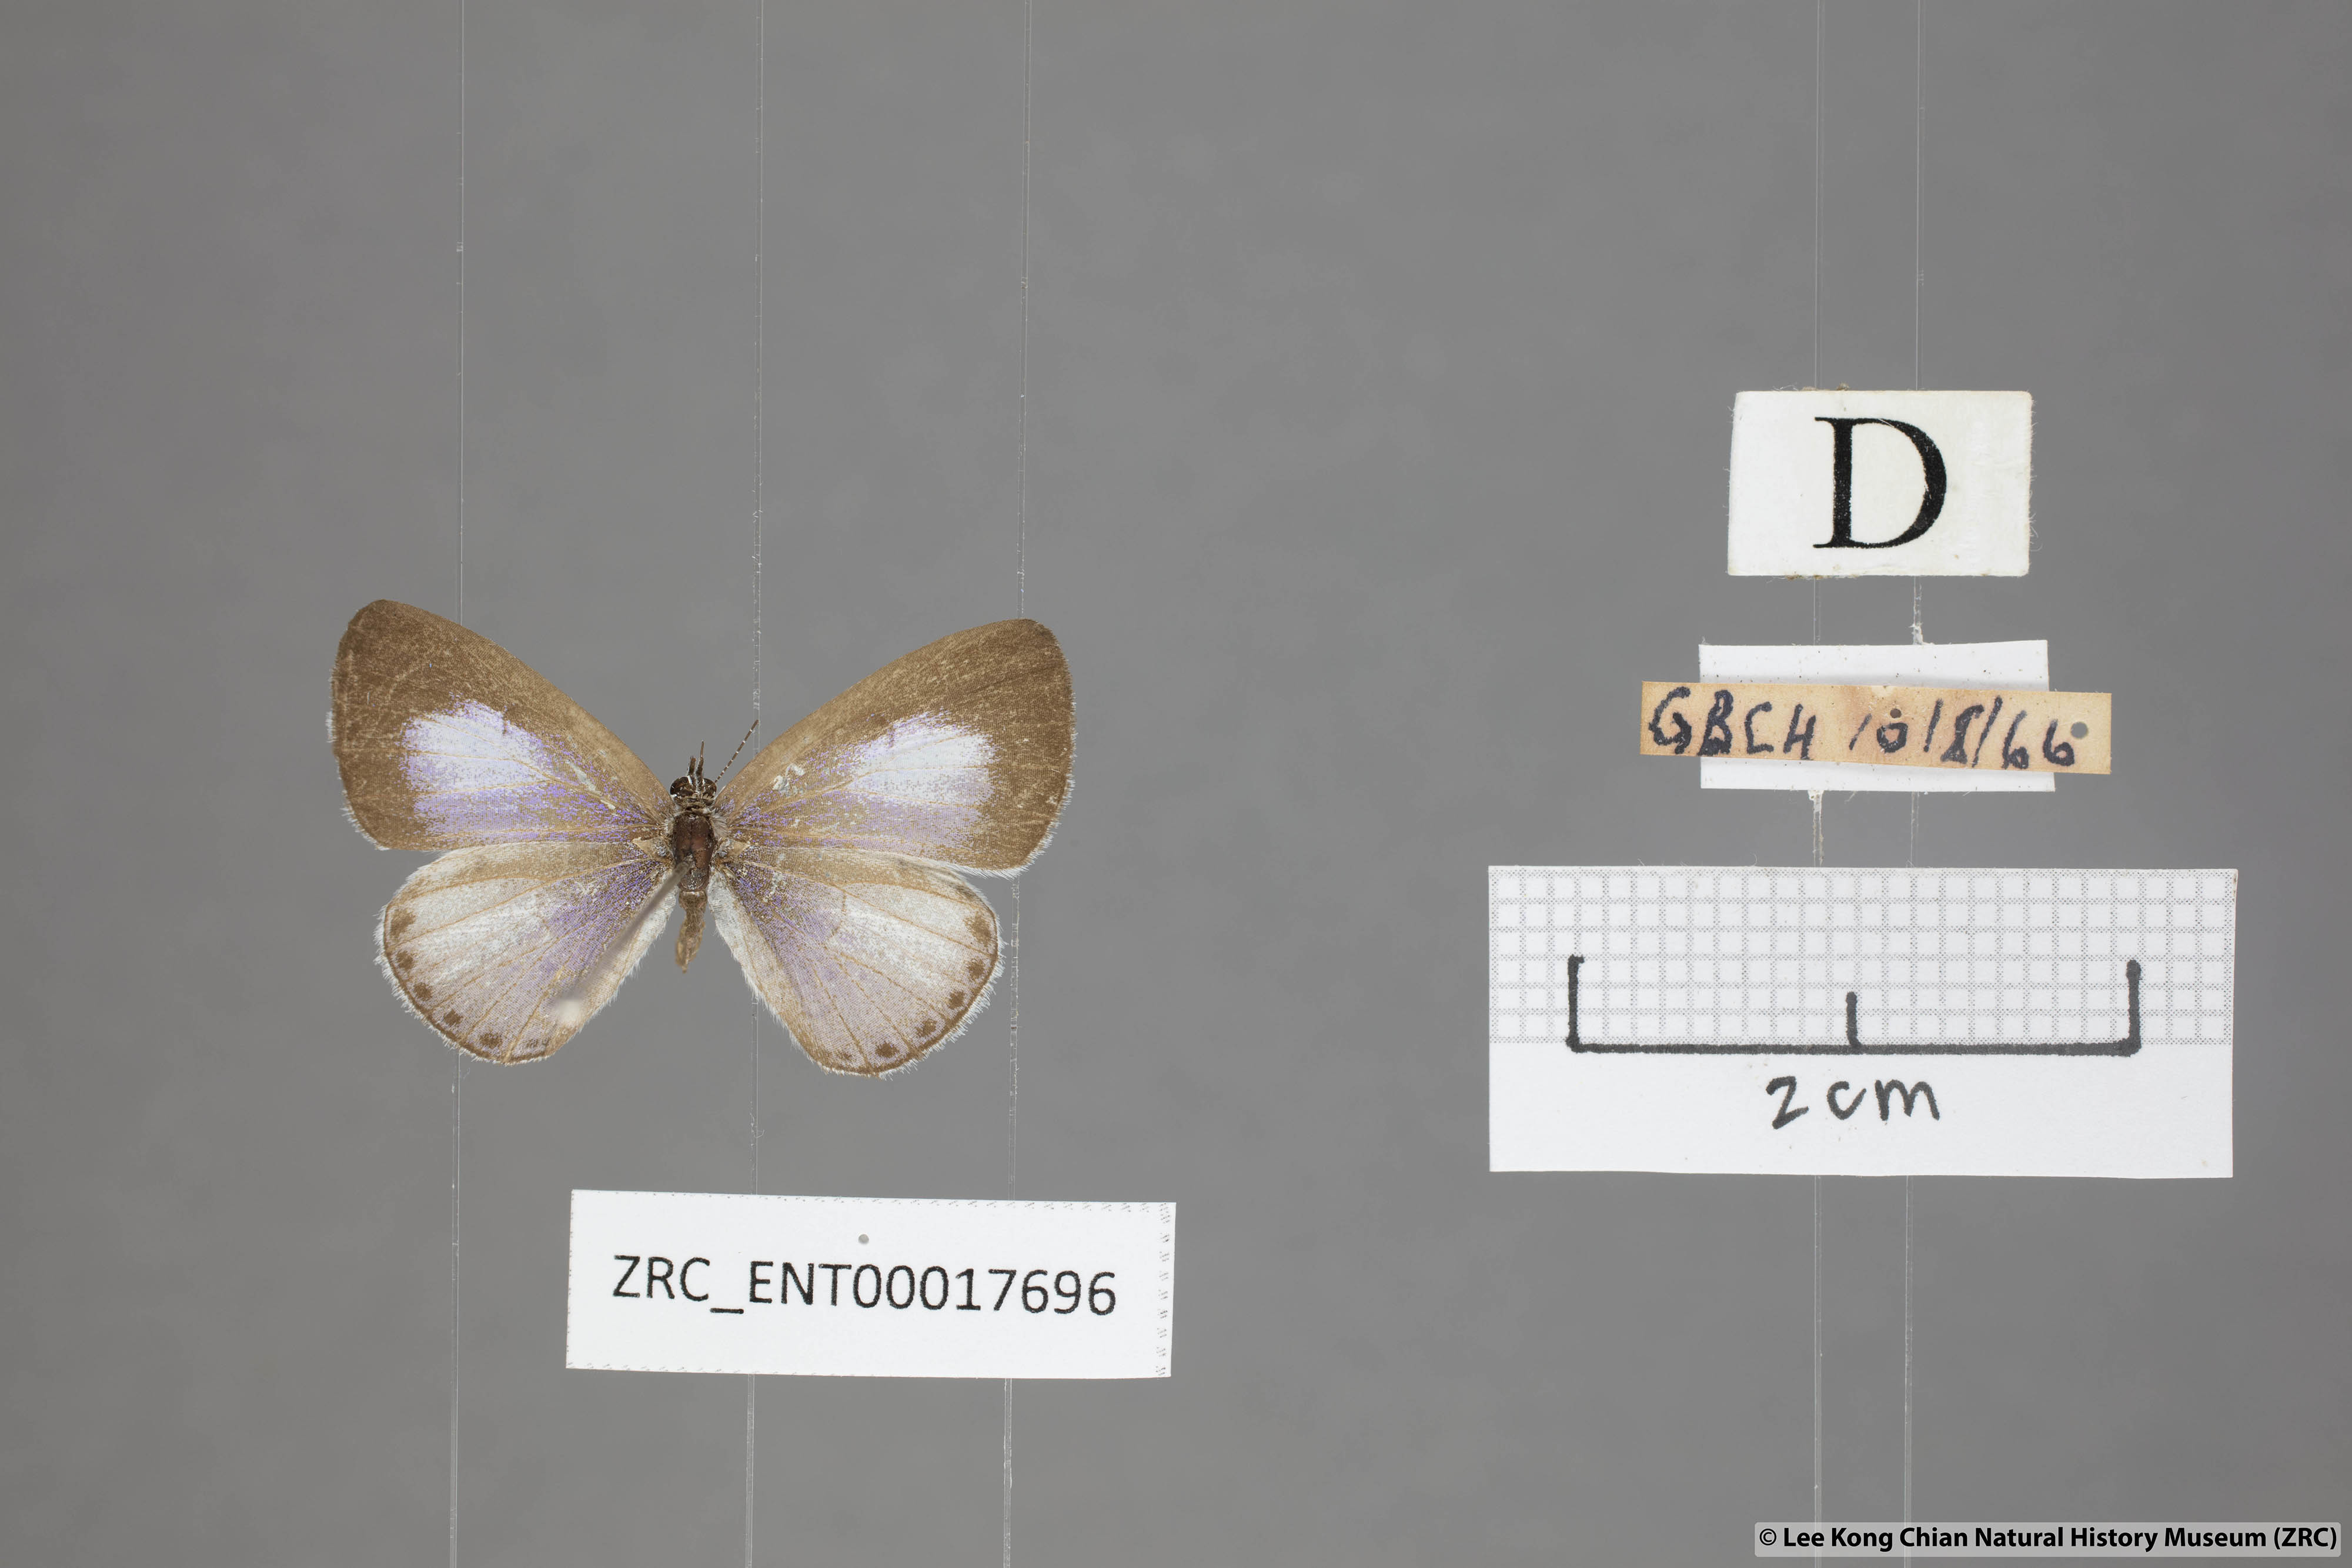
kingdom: Animalia
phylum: Arthropoda
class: Insecta
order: Lepidoptera
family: Lycaenidae
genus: Udara
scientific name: Udara camenae
